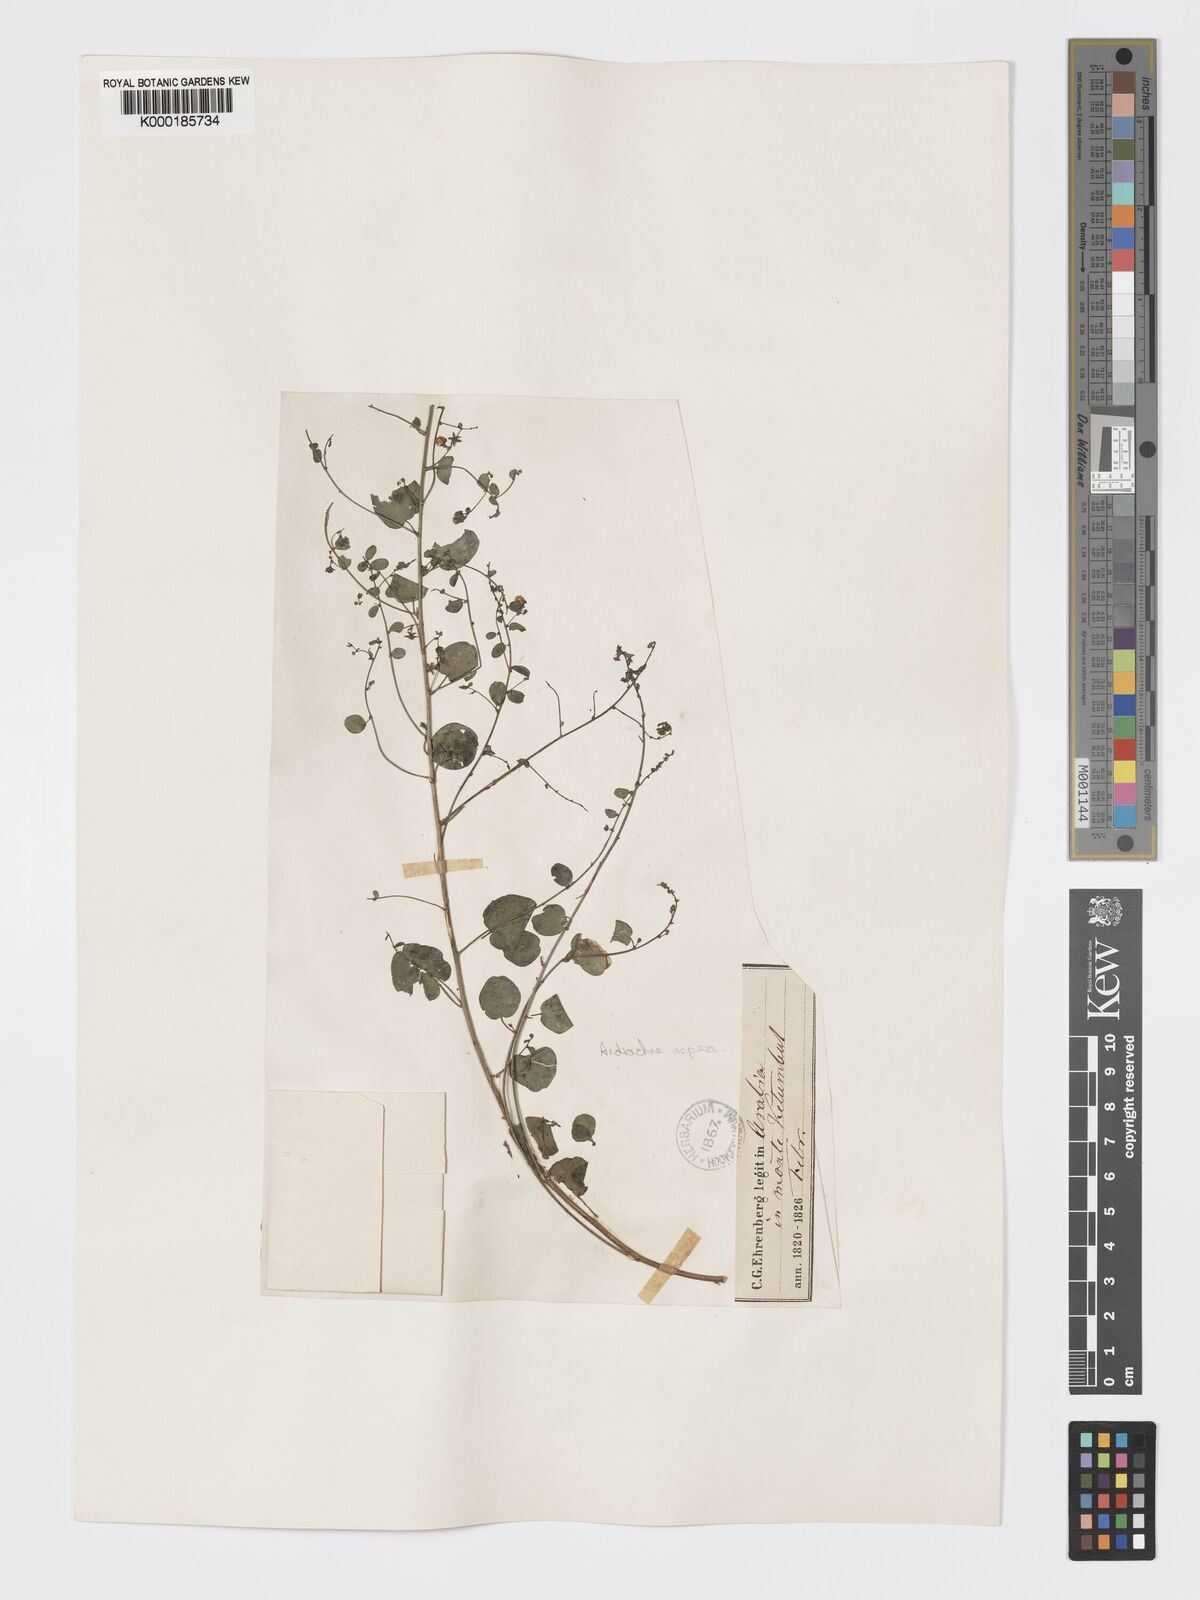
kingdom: Plantae
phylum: Tracheophyta
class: Magnoliopsida
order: Malpighiales
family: Phyllanthaceae
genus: Andrachne
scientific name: Andrachne aspera
